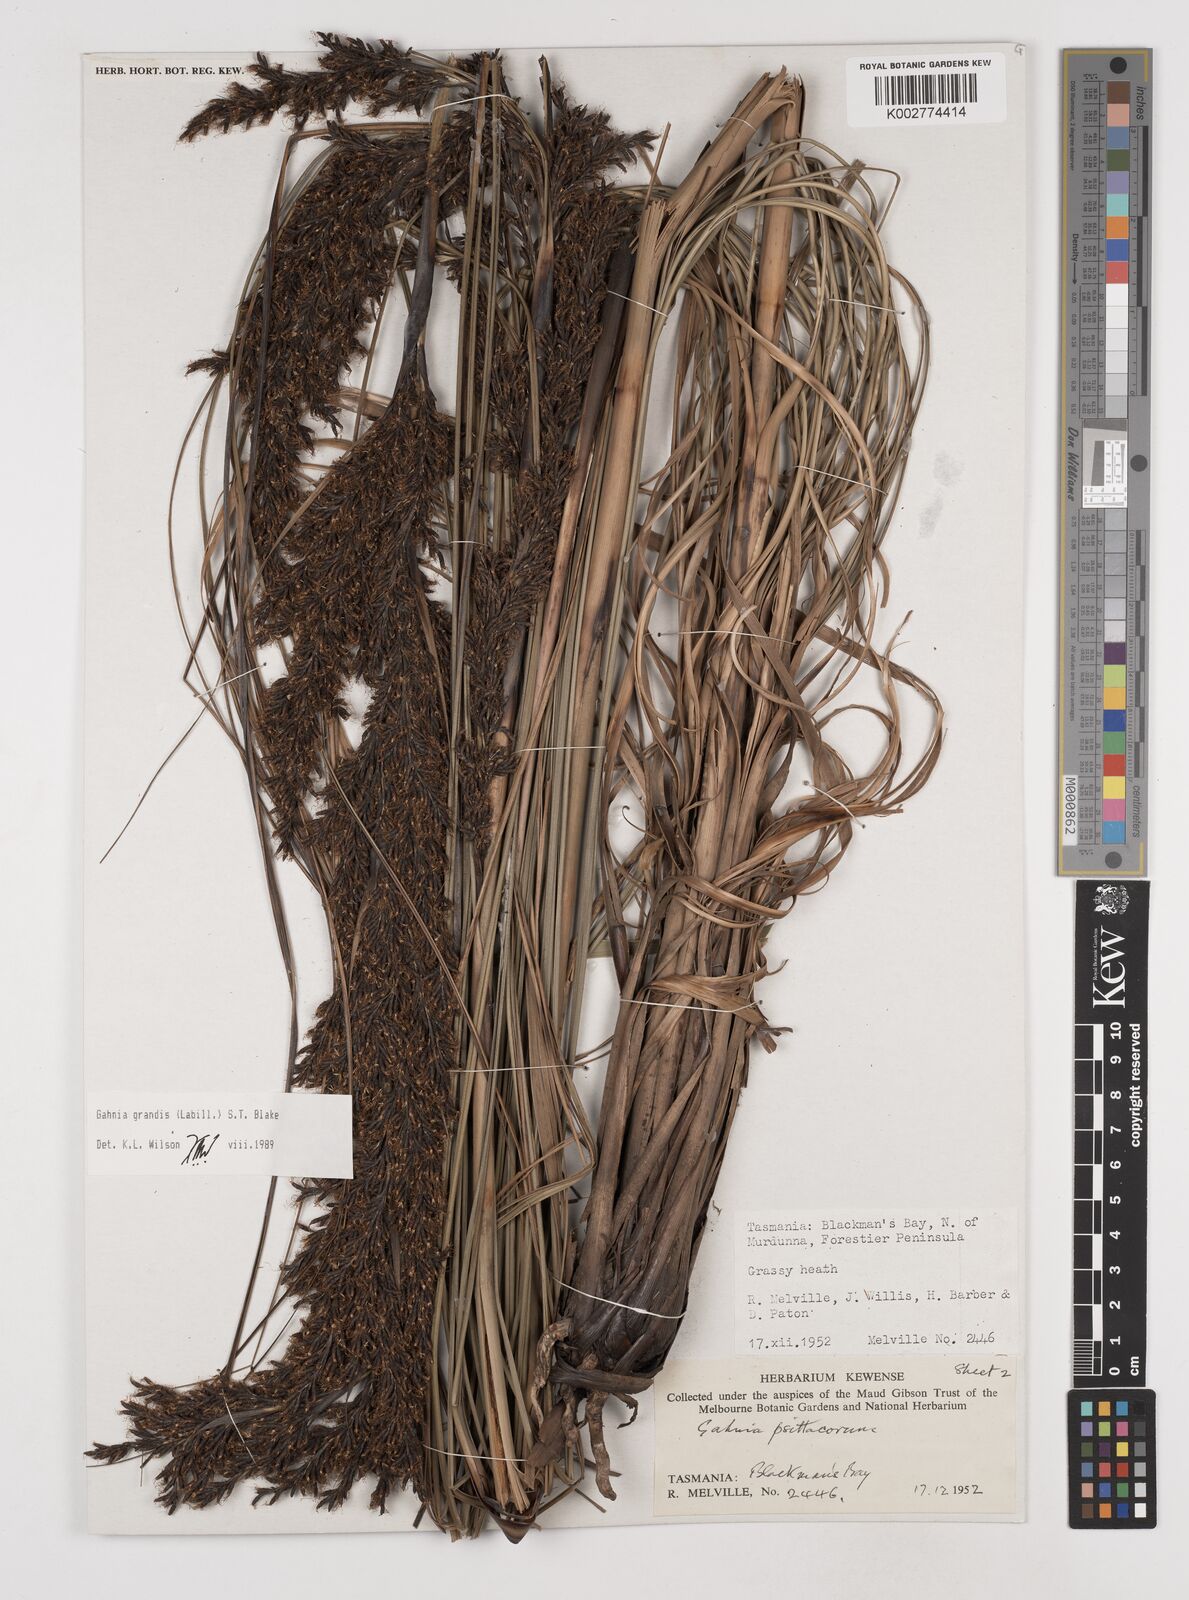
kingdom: Plantae
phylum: Tracheophyta
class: Liliopsida
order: Poales
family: Cyperaceae
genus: Gahnia
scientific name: Gahnia grandis
